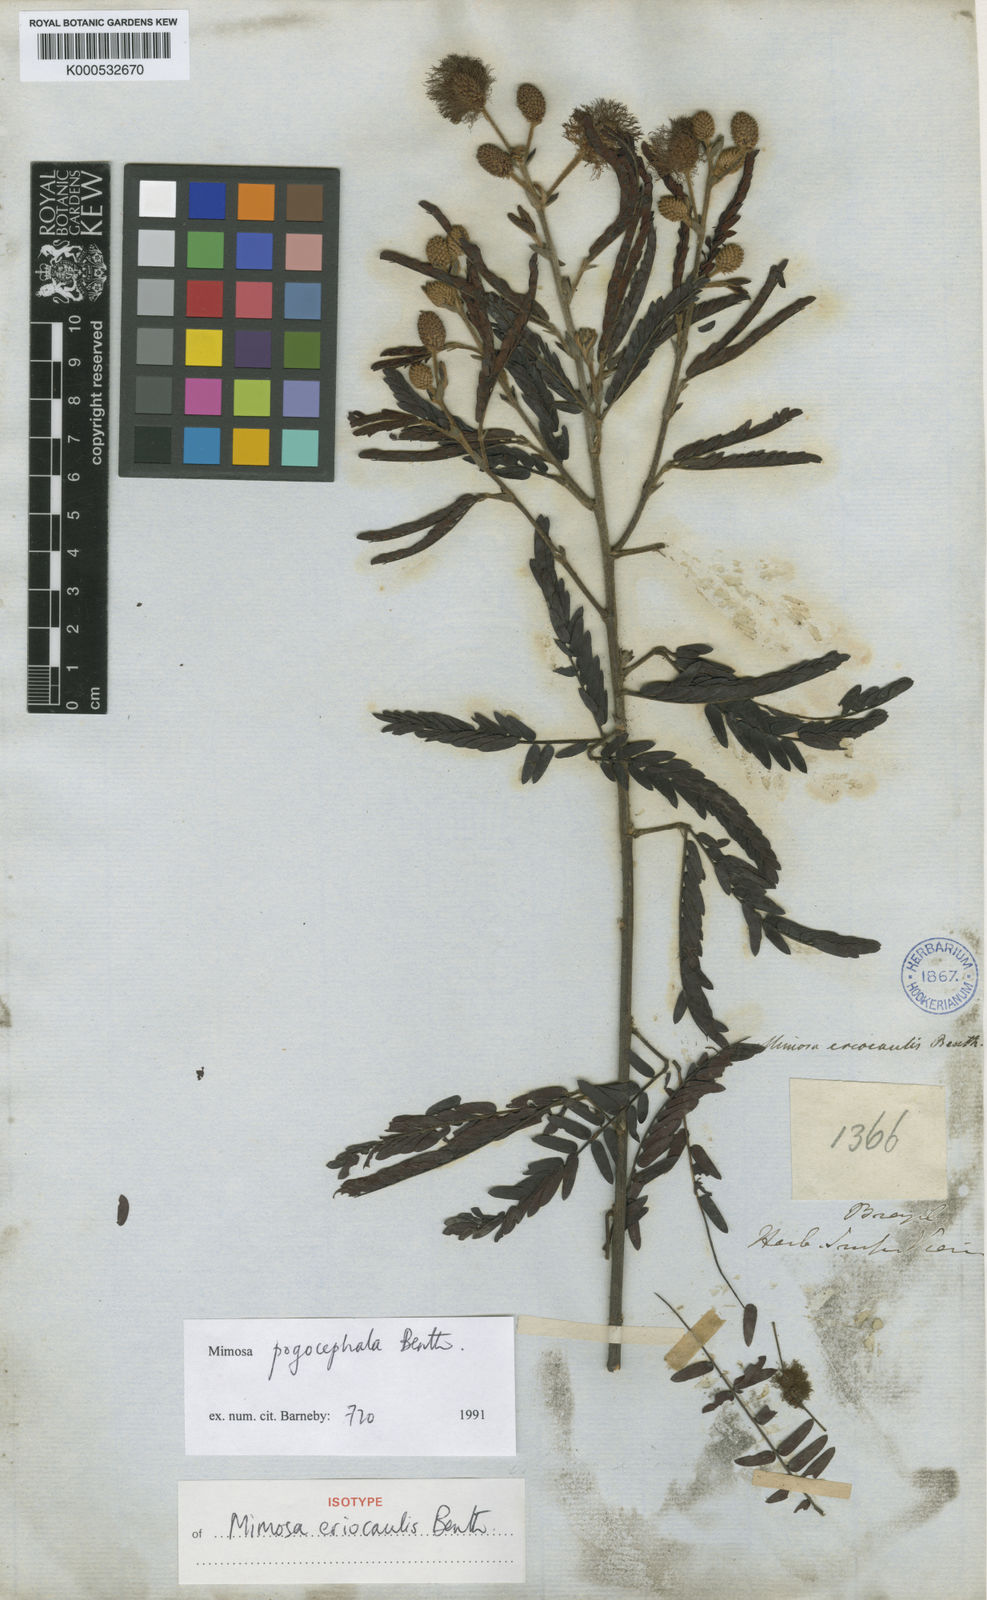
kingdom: Plantae
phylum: Tracheophyta
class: Magnoliopsida
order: Fabales
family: Fabaceae
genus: Mimosa
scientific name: Mimosa pogocephala
